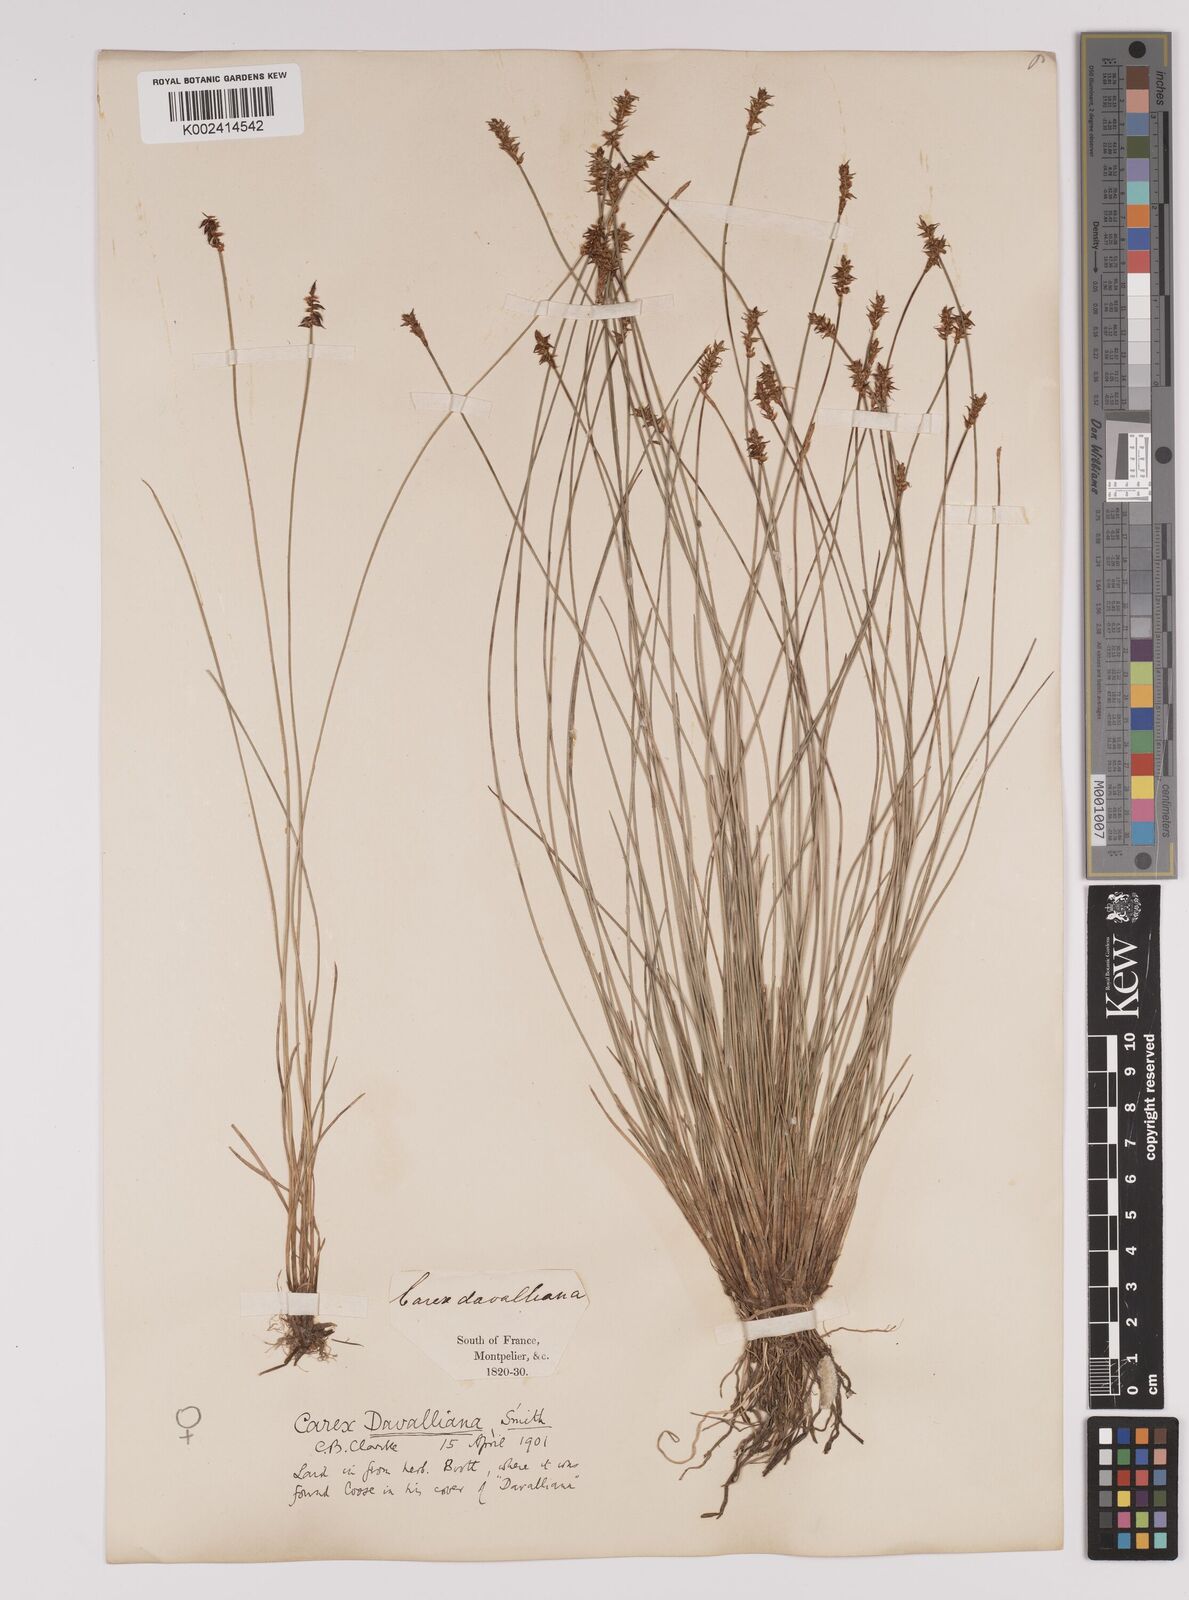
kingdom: Plantae
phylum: Tracheophyta
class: Liliopsida
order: Poales
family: Cyperaceae
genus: Carex
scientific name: Carex davalliana
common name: Davall's sedge
